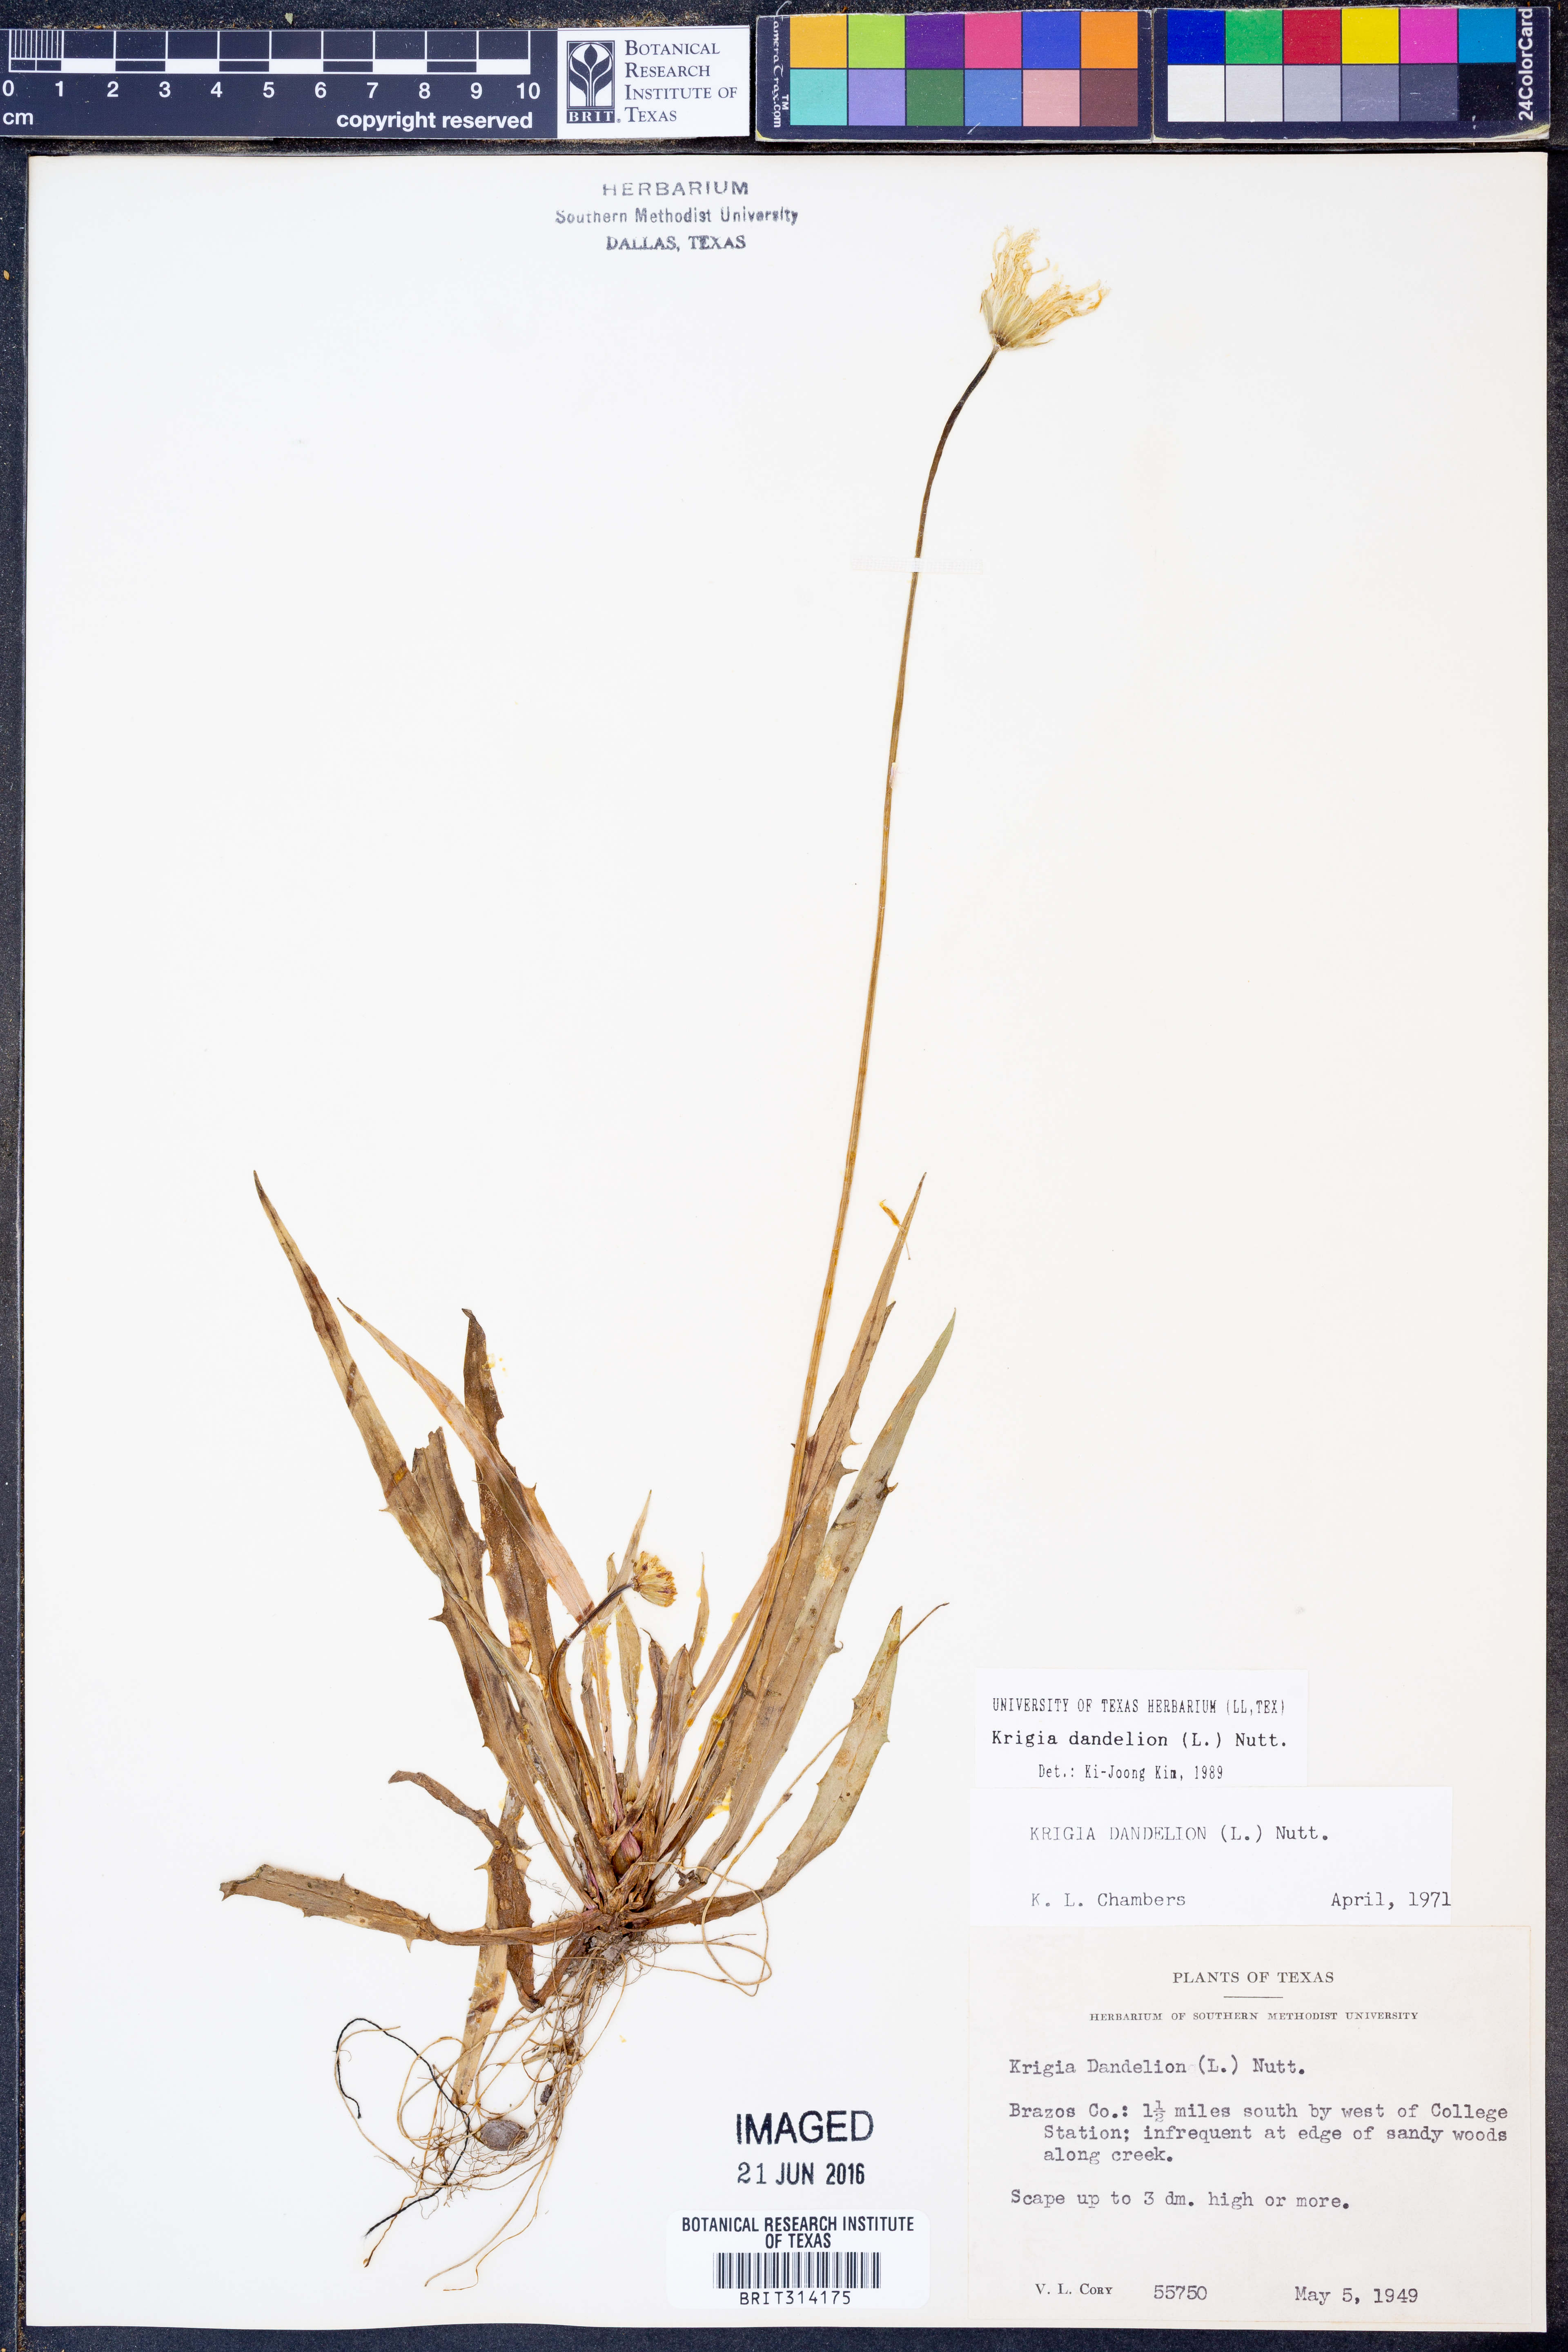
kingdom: Plantae
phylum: Tracheophyta
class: Magnoliopsida
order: Asterales
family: Asteraceae
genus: Krigia
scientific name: Krigia dandelion
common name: Colonial dwarf-dandelion
